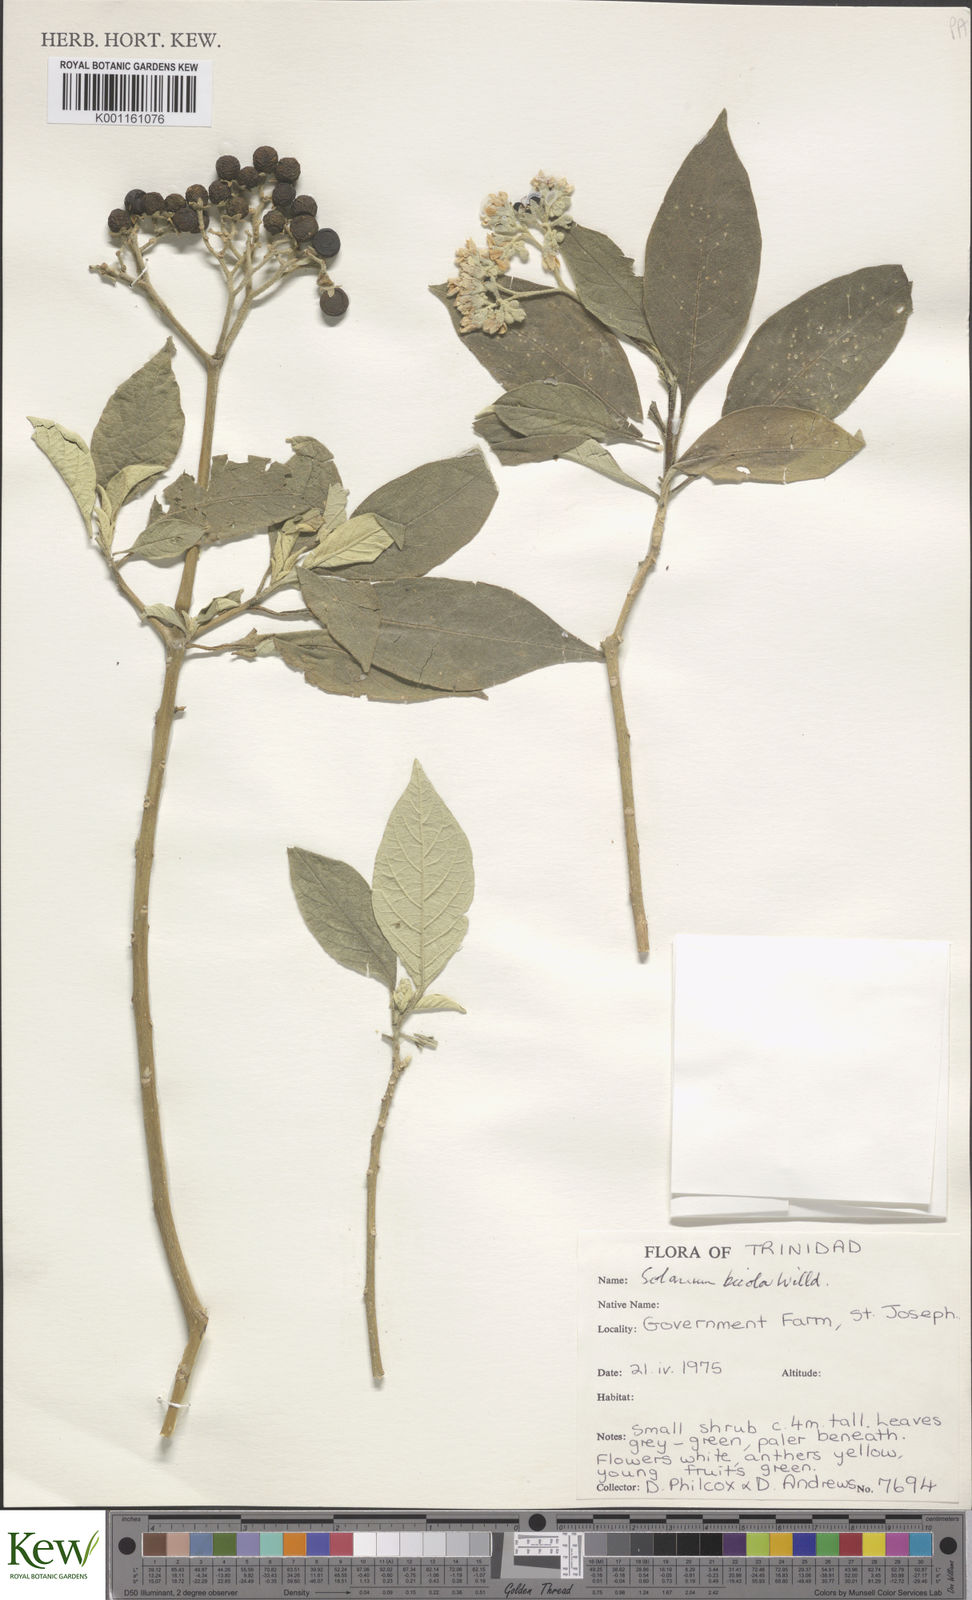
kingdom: Plantae
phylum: Tracheophyta
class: Magnoliopsida
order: Solanales
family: Solanaceae
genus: Solanum
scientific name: Solanum bicolor
